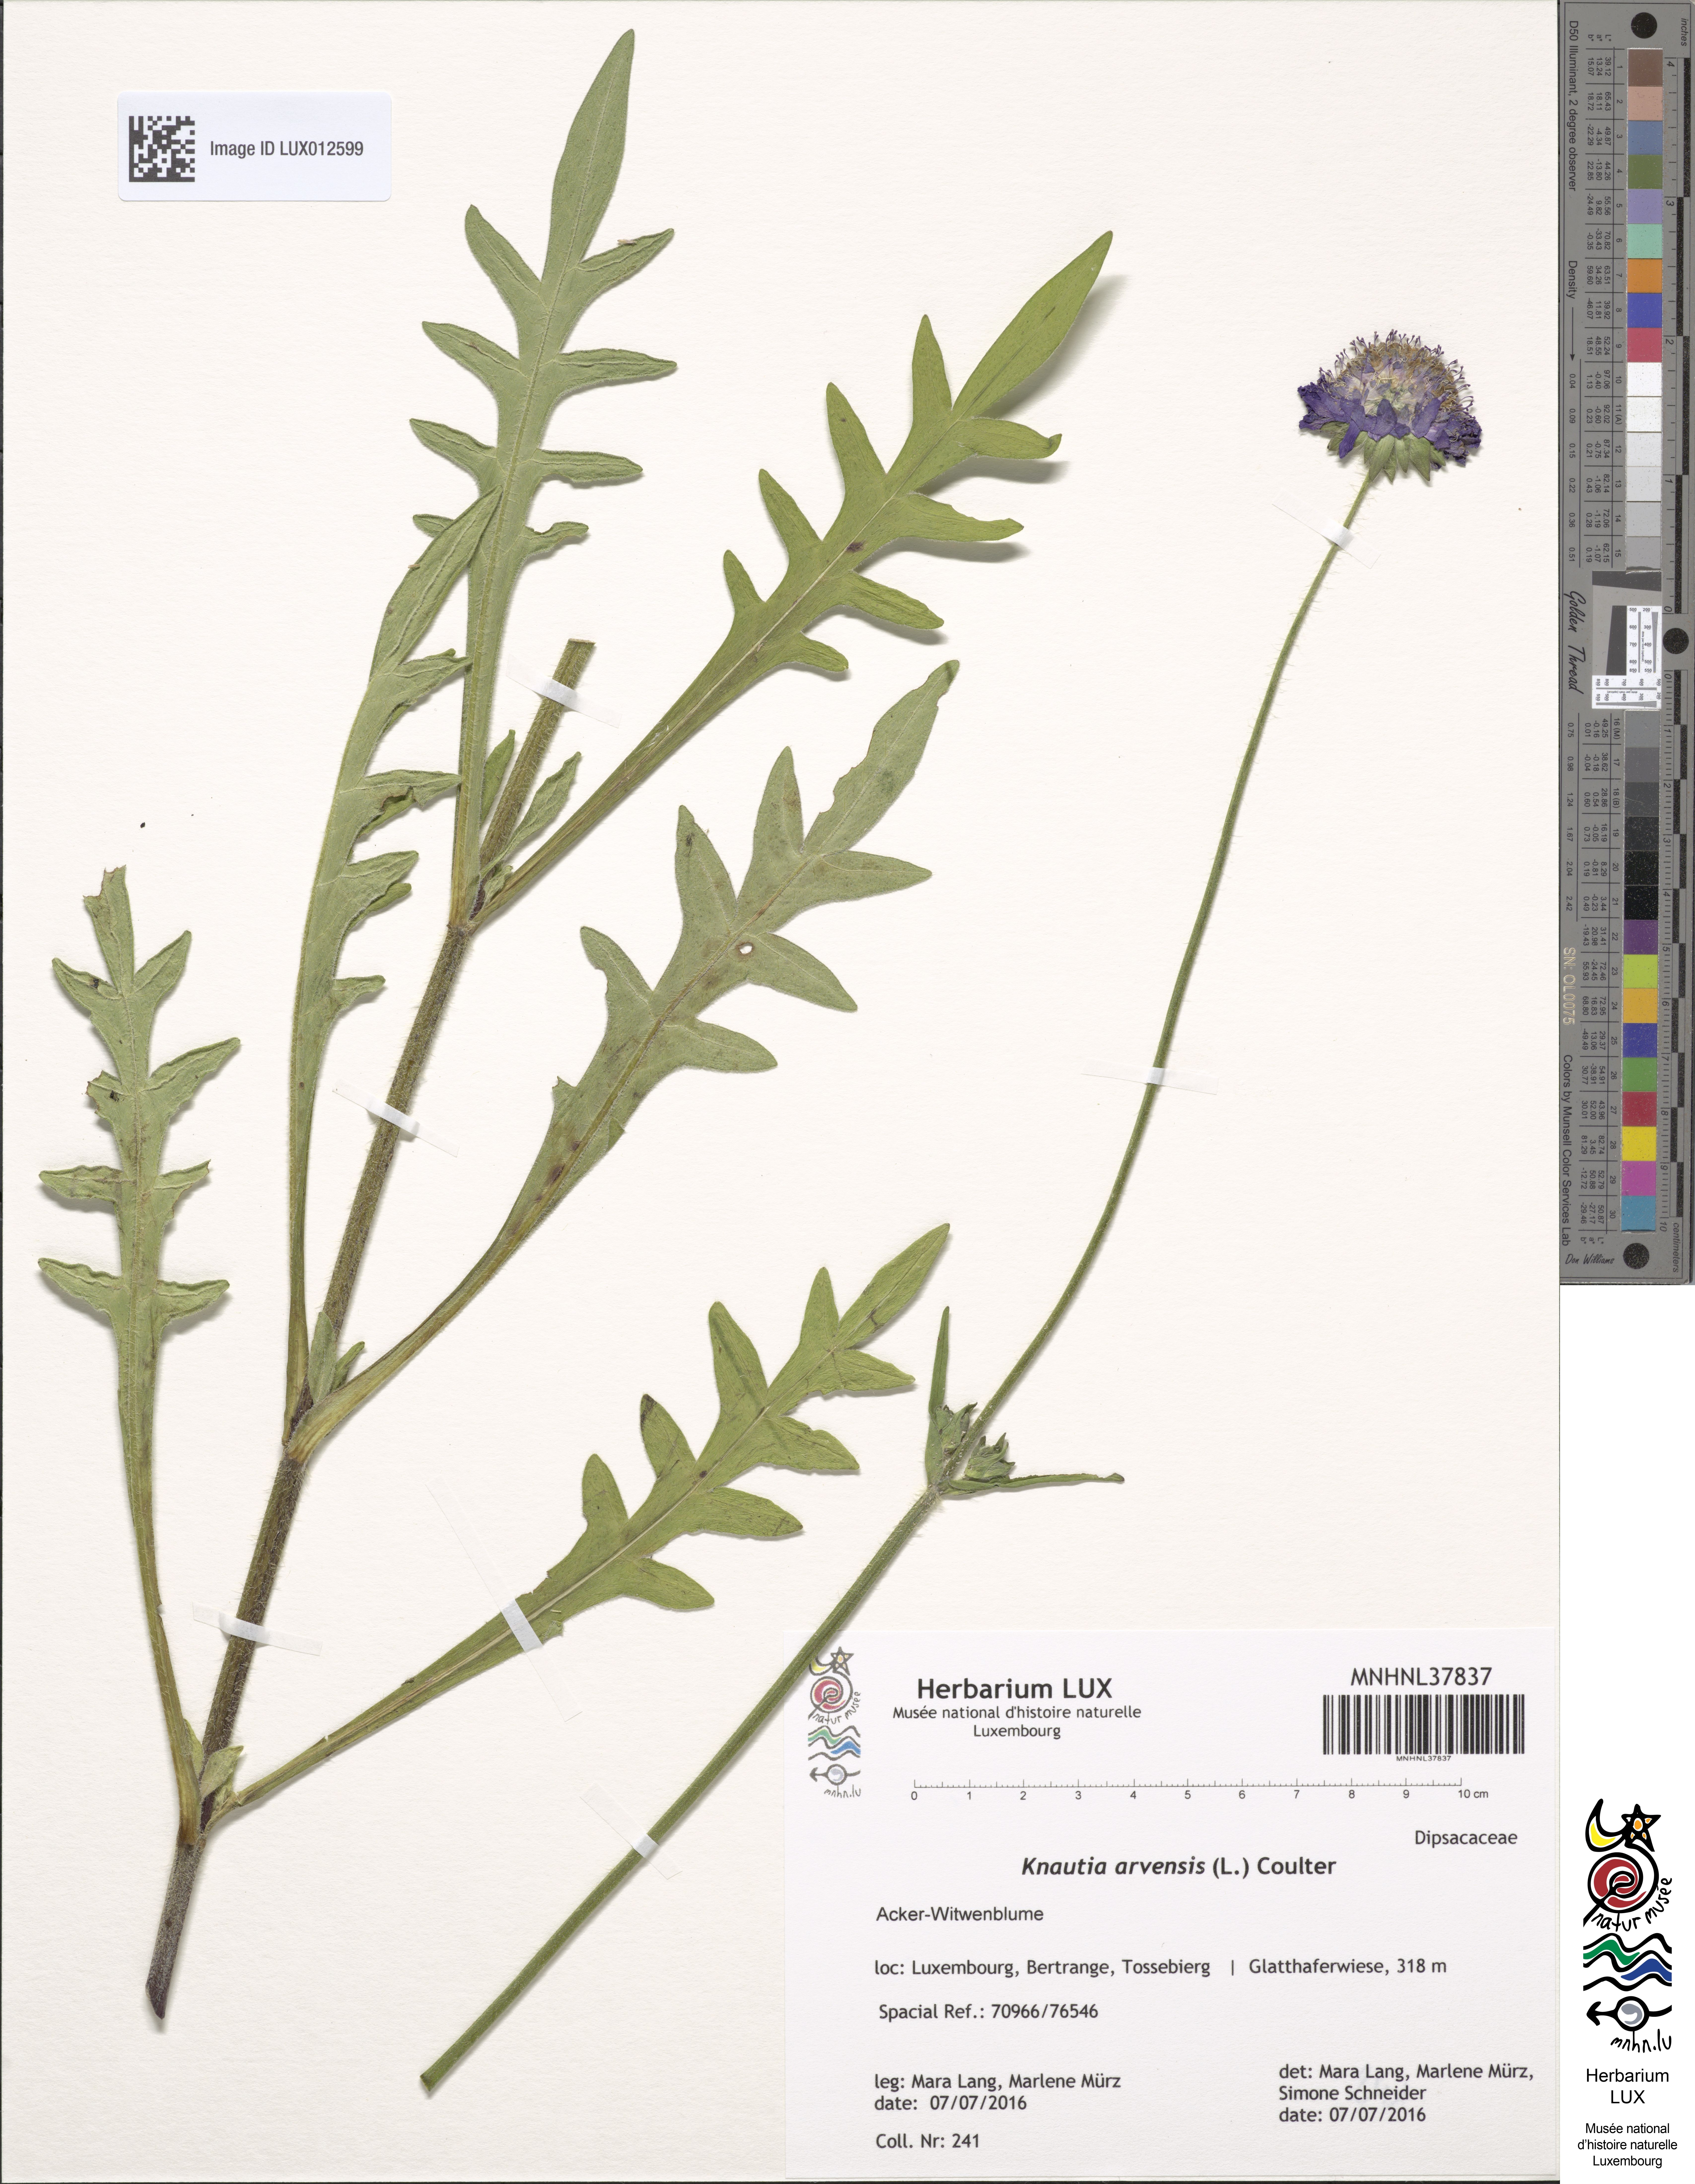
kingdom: Plantae
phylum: Tracheophyta
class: Magnoliopsida
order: Dipsacales
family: Caprifoliaceae
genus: Knautia
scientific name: Knautia arvensis
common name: Field scabiosa
